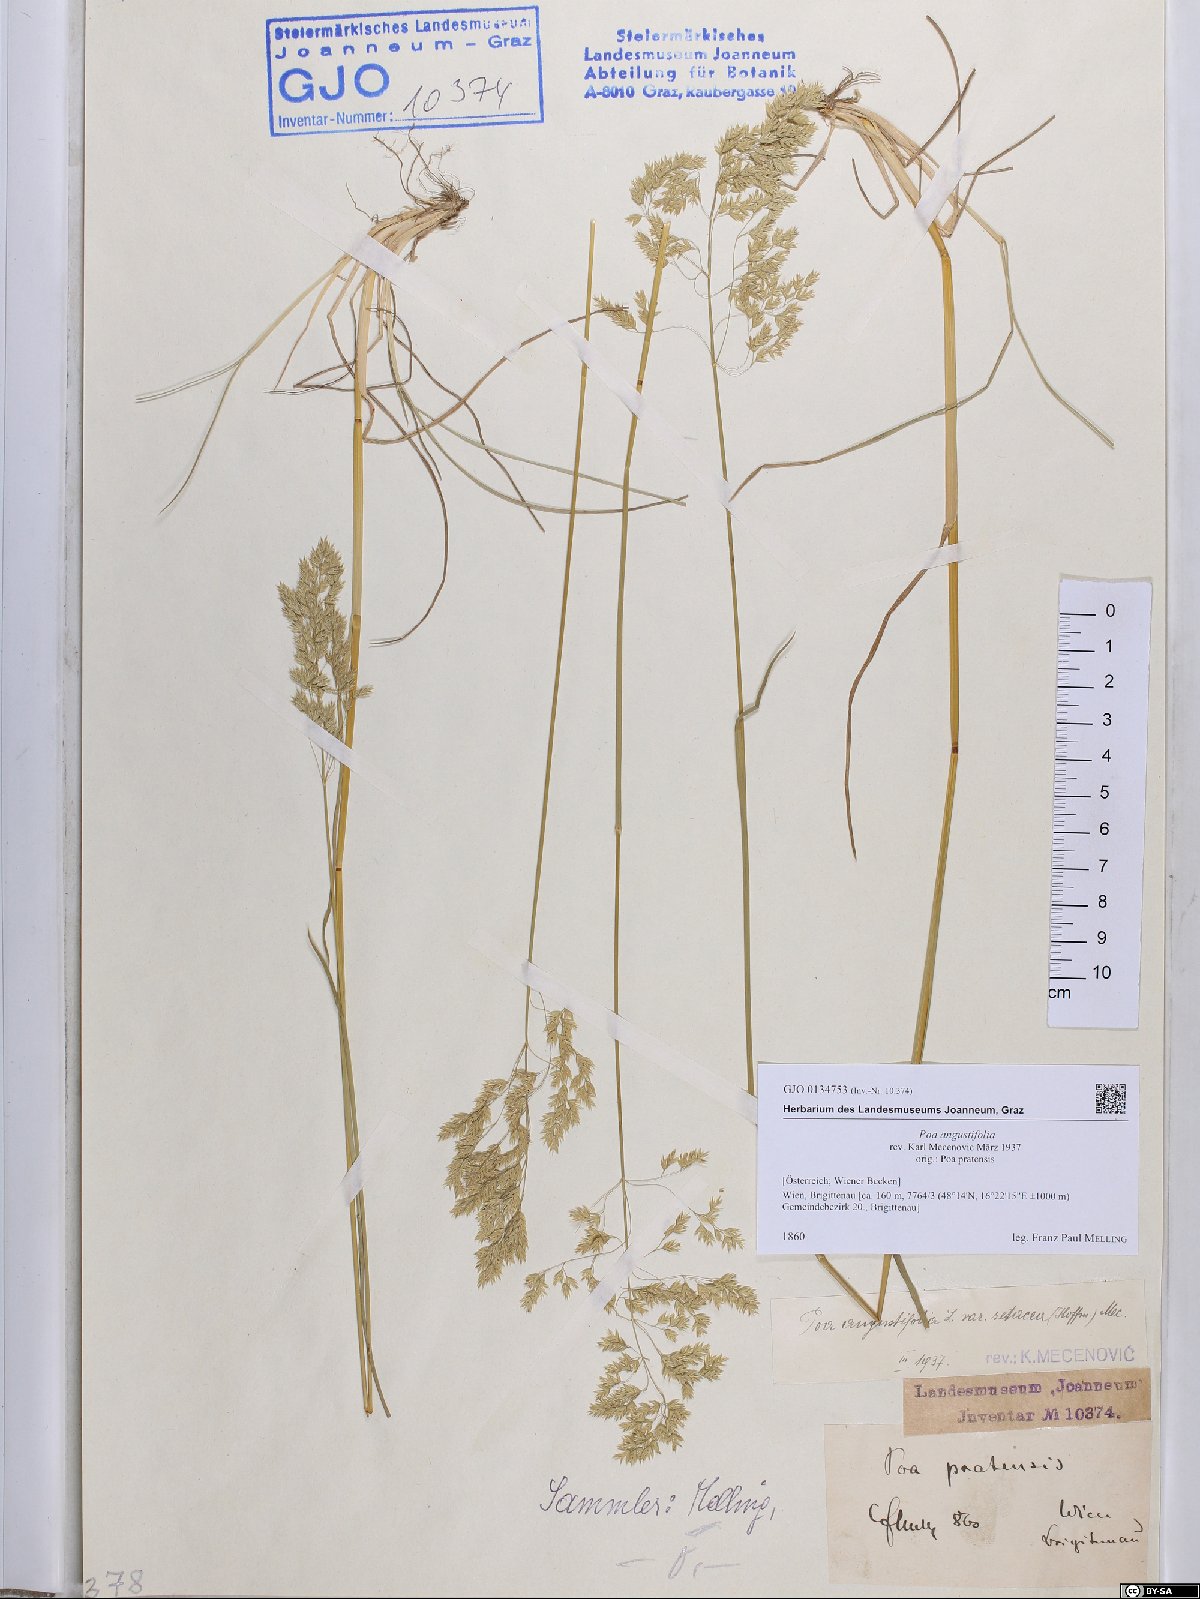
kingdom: Plantae
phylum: Tracheophyta
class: Liliopsida
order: Poales
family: Poaceae
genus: Poa
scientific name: Poa angustifolia
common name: Narrow-leaved meadow-grass
